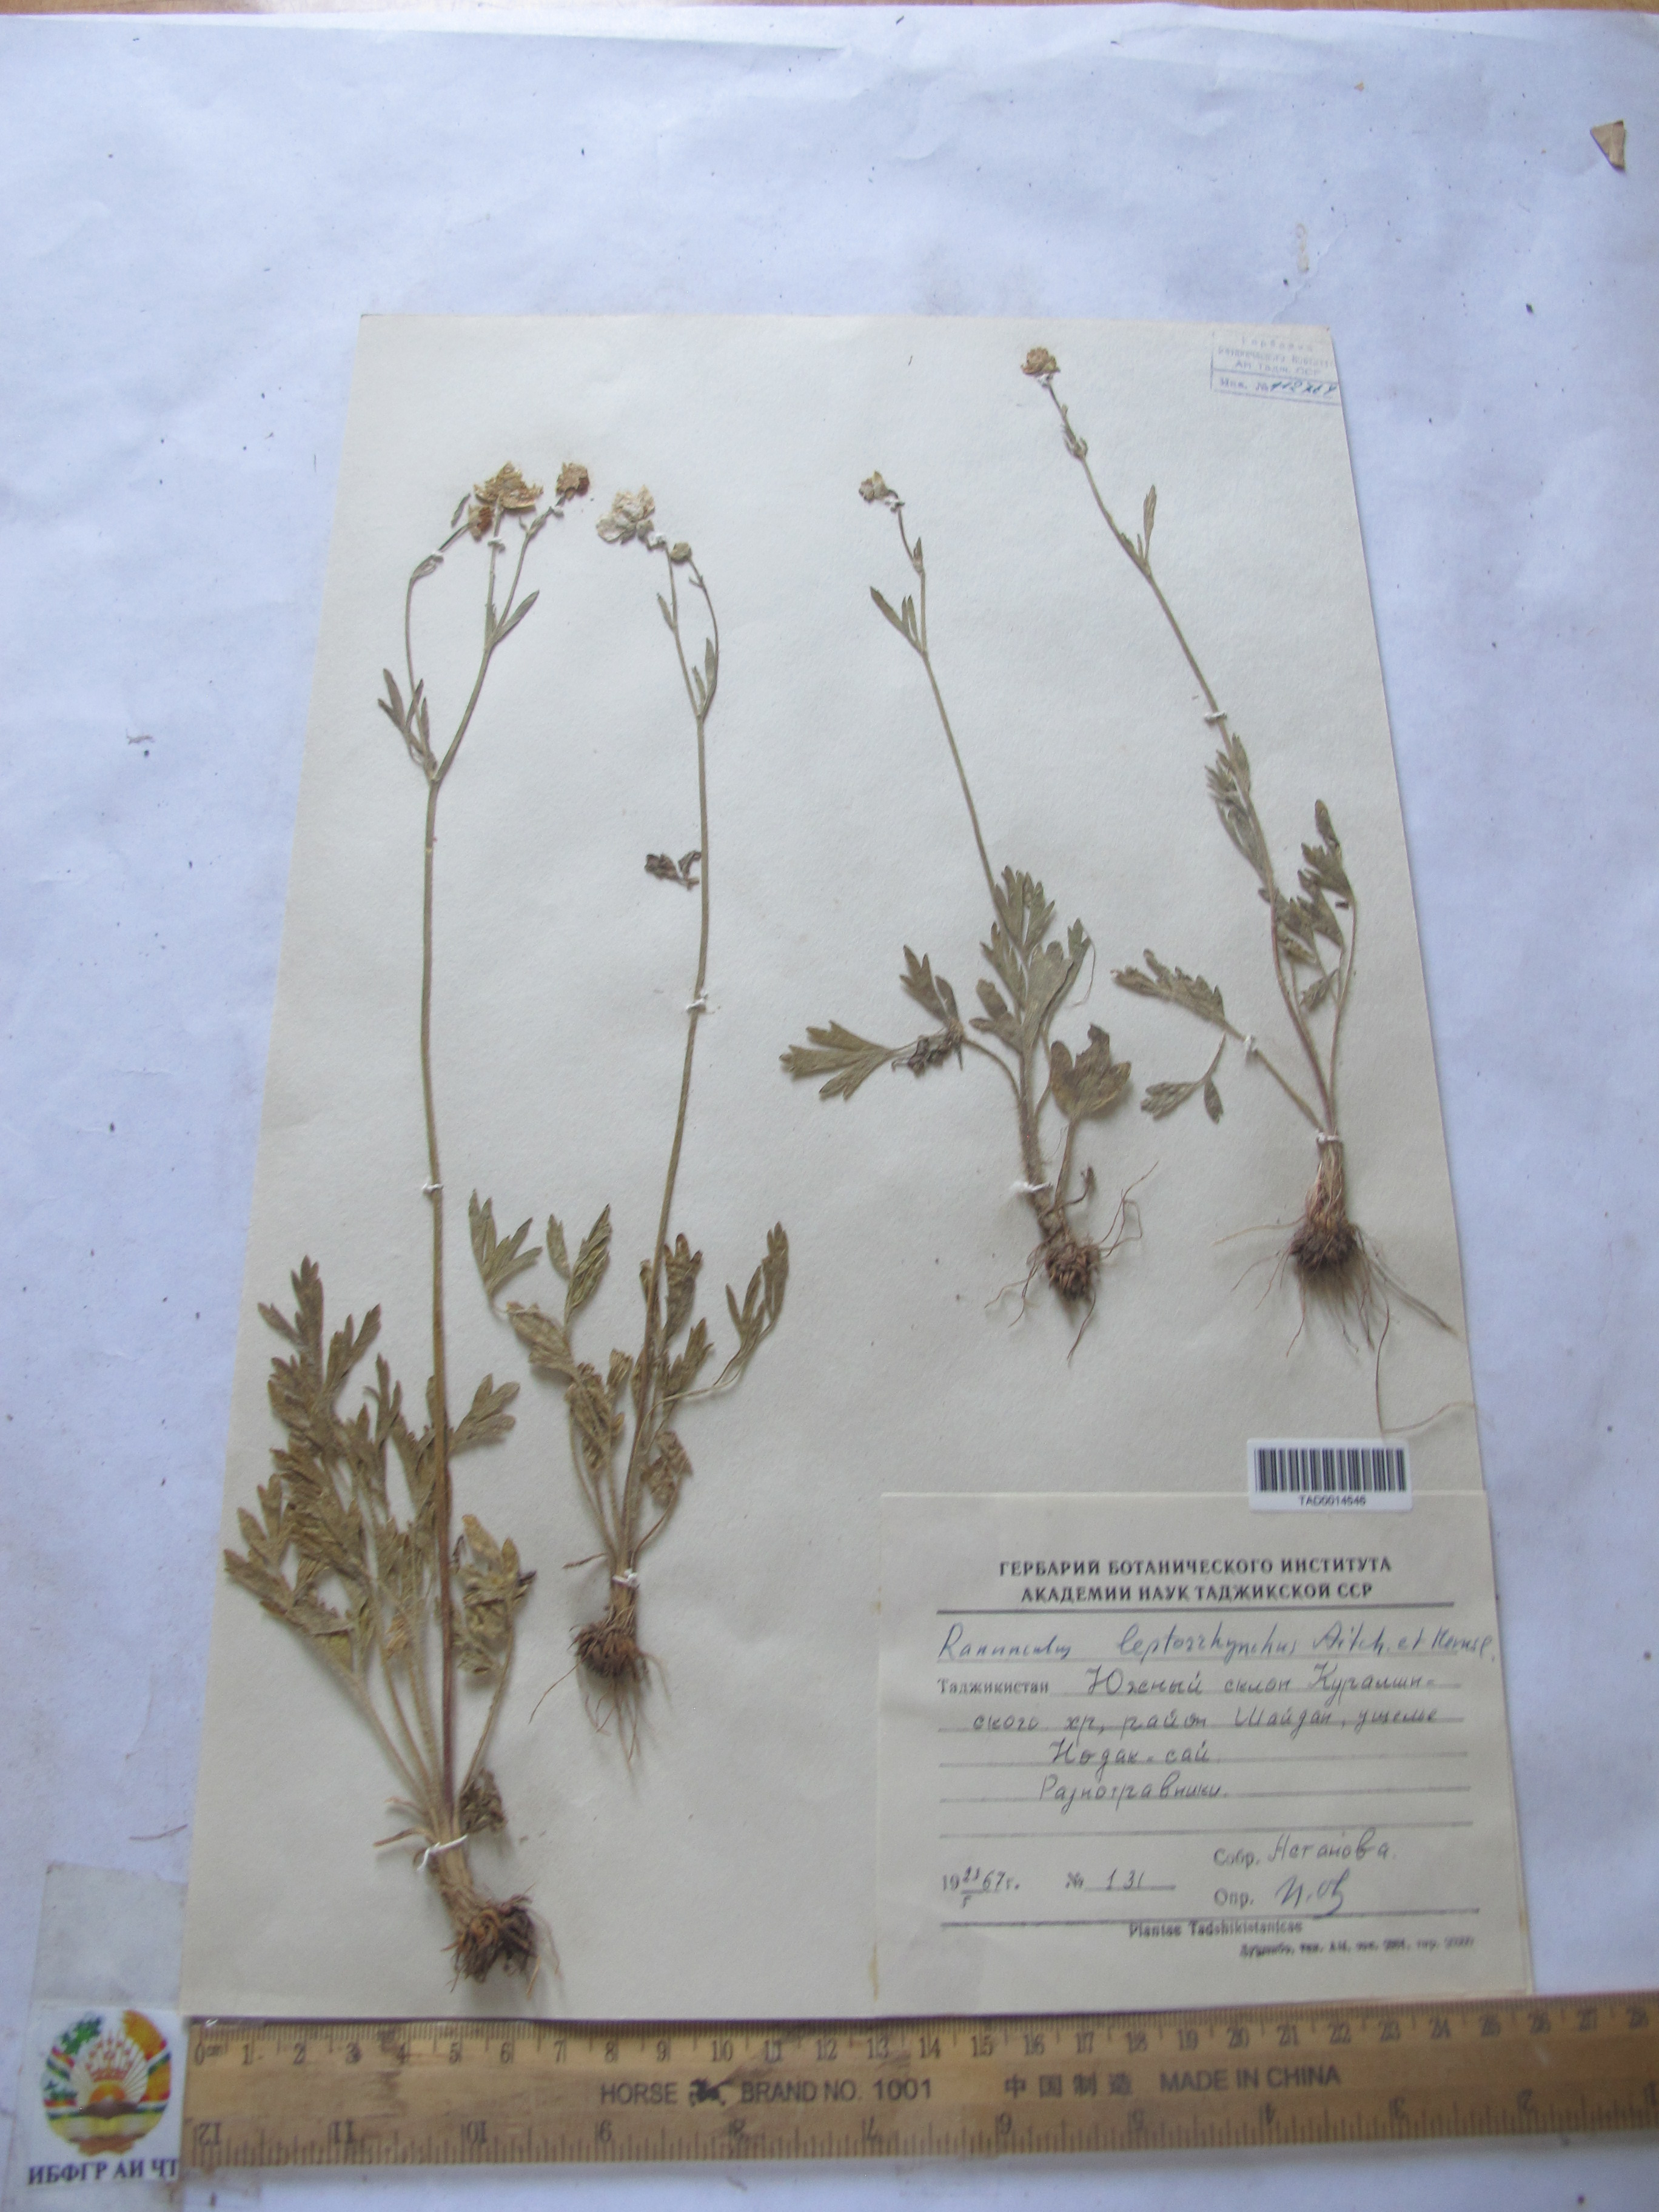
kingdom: Plantae
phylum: Tracheophyta
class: Magnoliopsida
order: Ranunculales
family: Ranunculaceae
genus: Ranunculus
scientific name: Ranunculus leptorrhynchus
